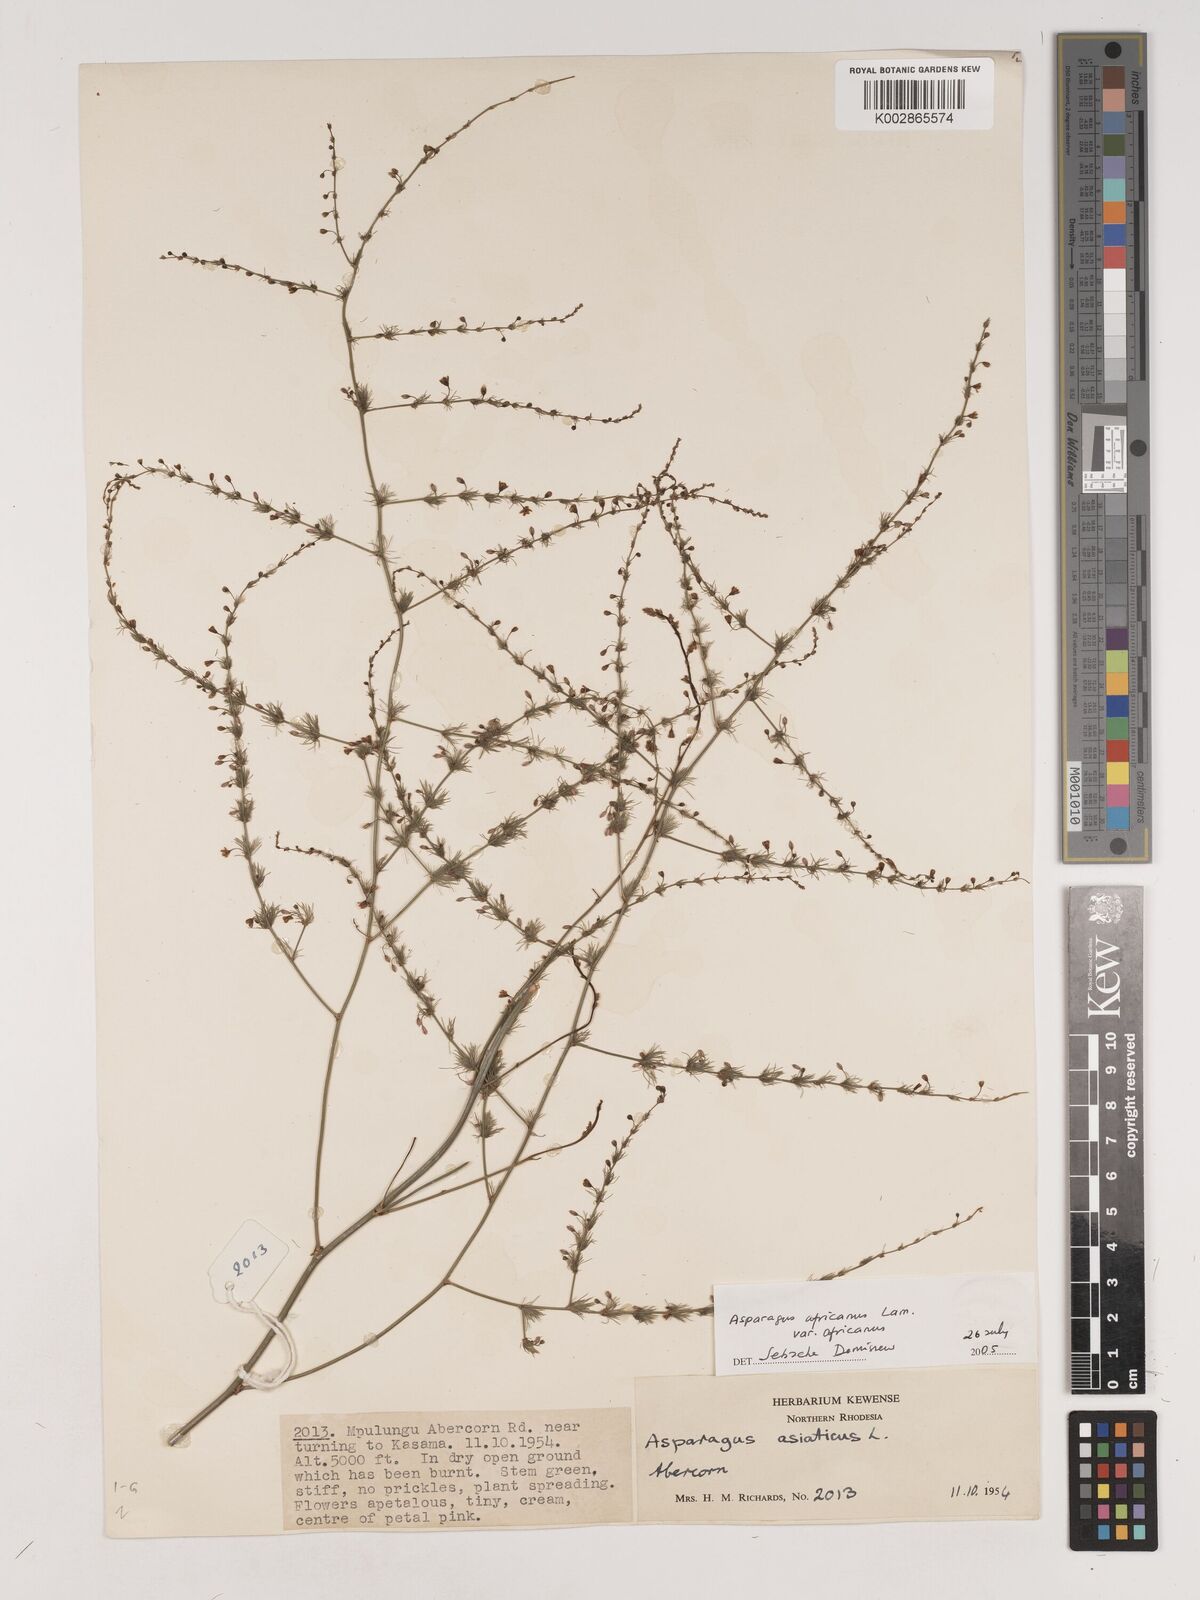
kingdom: Plantae
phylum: Tracheophyta
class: Liliopsida
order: Asparagales
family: Asparagaceae
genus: Asparagus
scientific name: Asparagus
